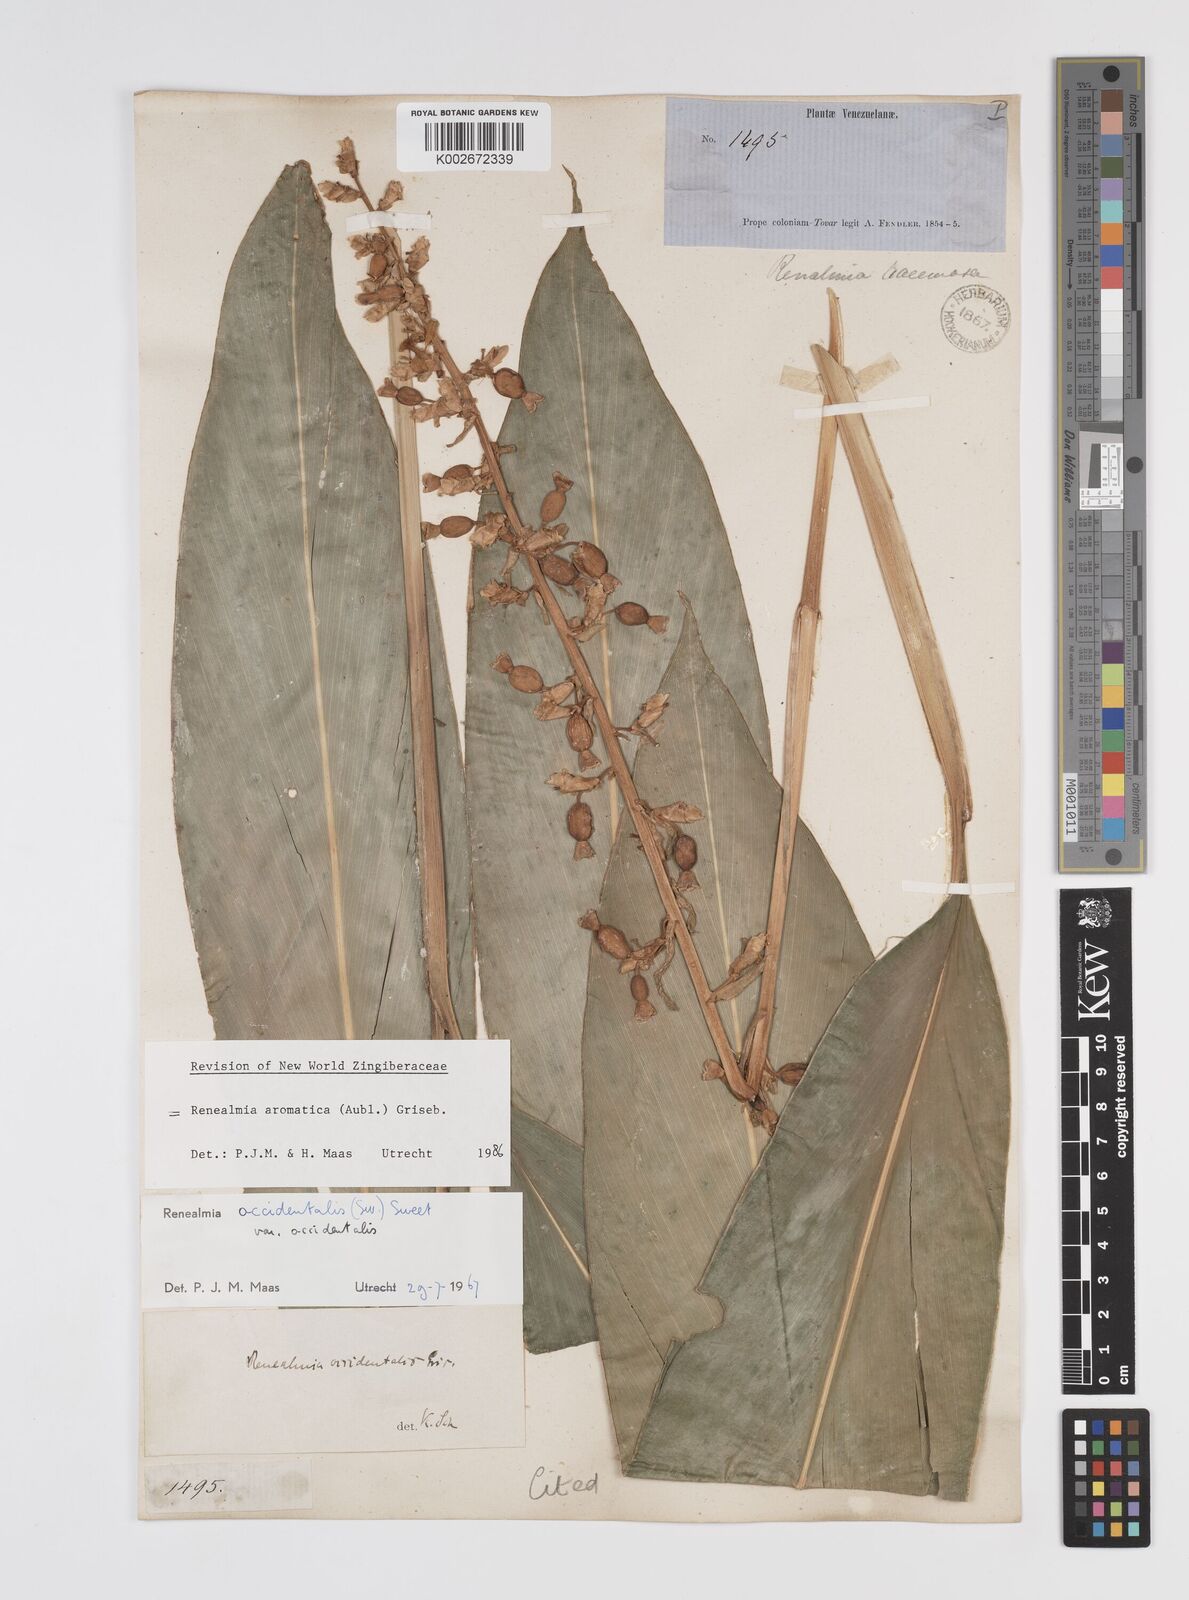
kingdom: Plantae
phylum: Tracheophyta
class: Liliopsida
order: Zingiberales
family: Zingiberaceae
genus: Renealmia
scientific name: Renealmia aromatica
